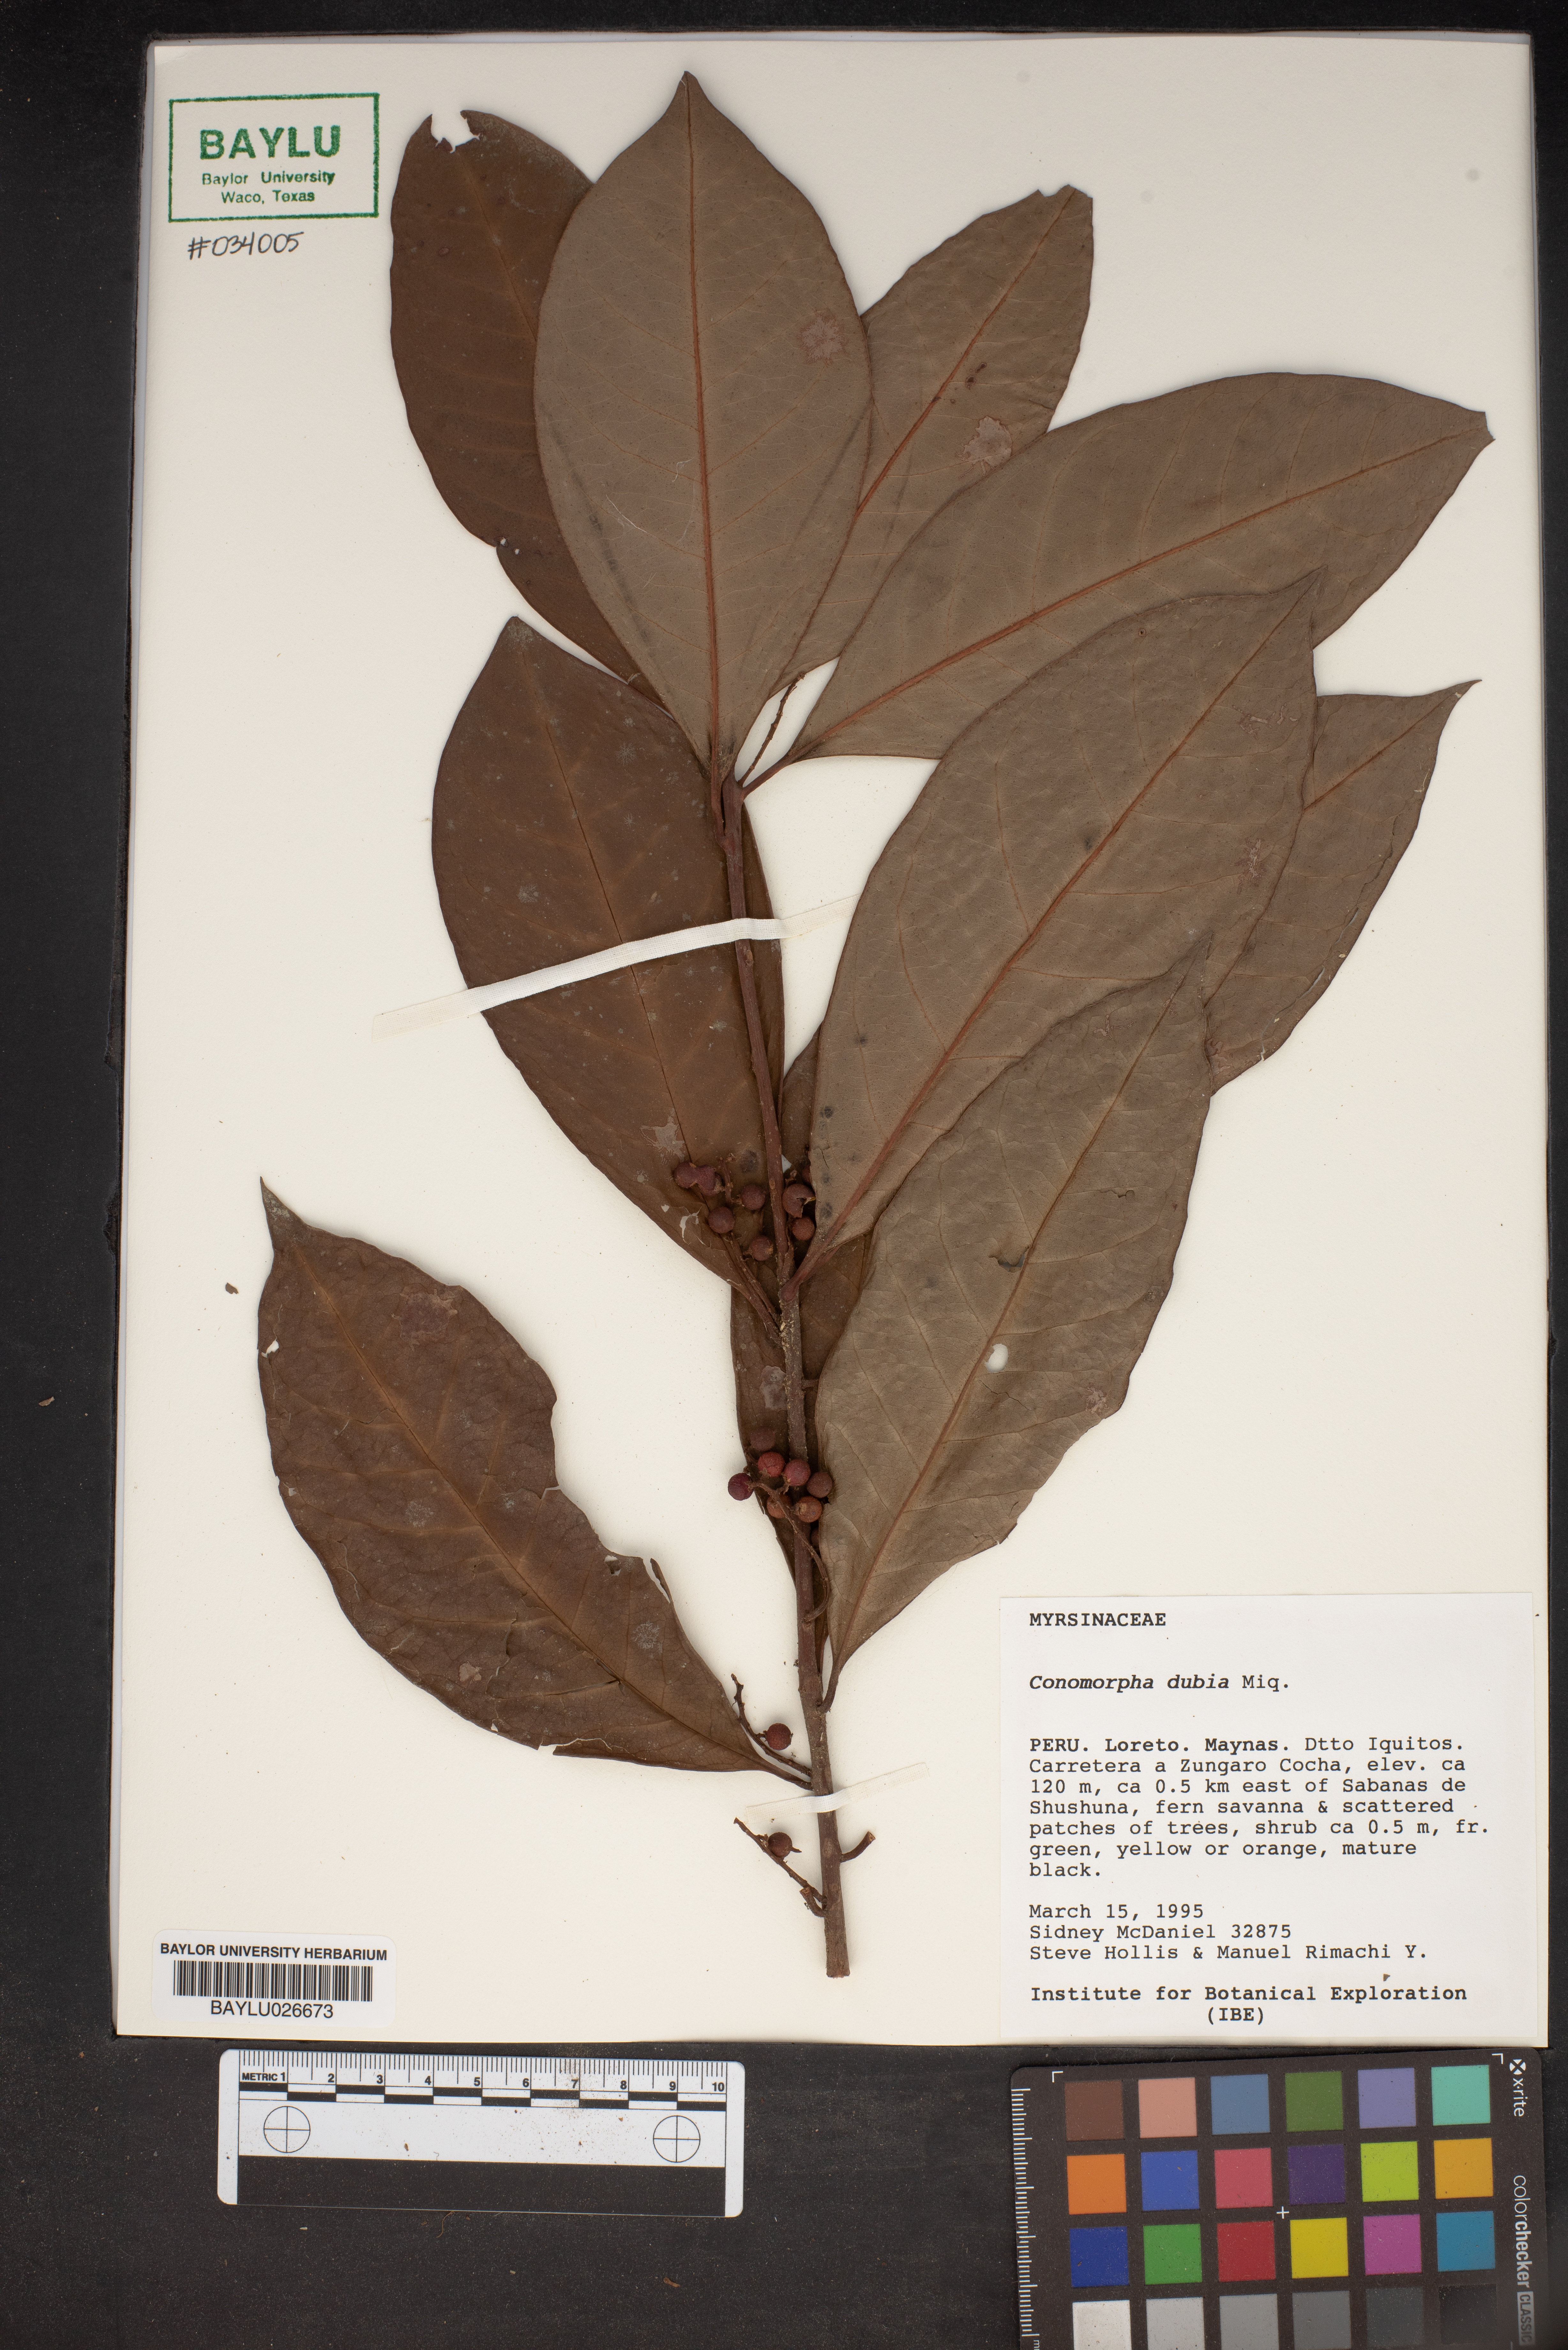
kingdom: Plantae
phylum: Tracheophyta
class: Magnoliopsida
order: Ericales
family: Primulaceae
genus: Cybianthus
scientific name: Cybianthus nanayensis
